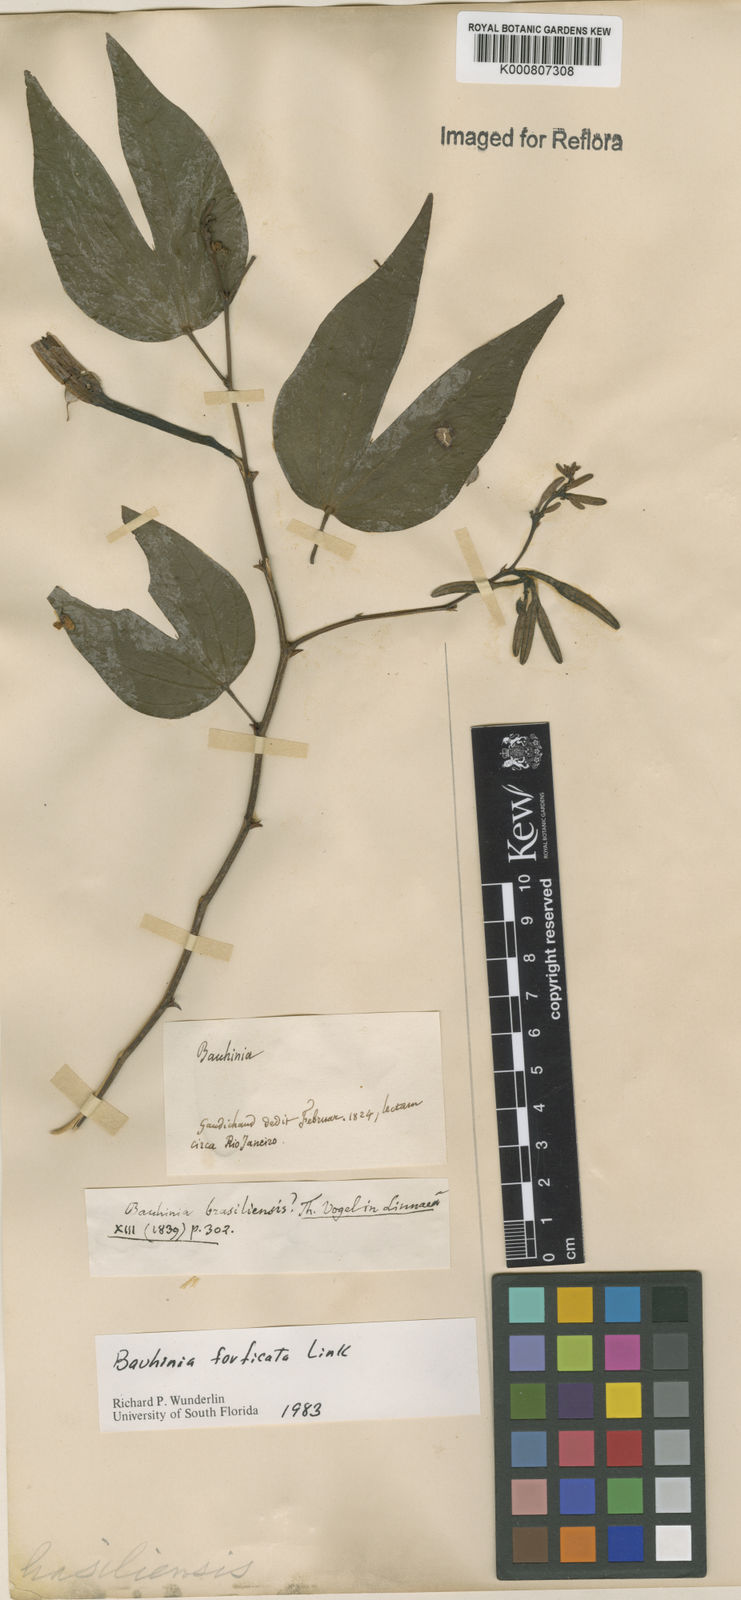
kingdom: Plantae
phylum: Tracheophyta
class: Magnoliopsida
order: Fabales
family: Fabaceae
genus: Bauhinia
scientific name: Bauhinia forficata
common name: Orchid tree
